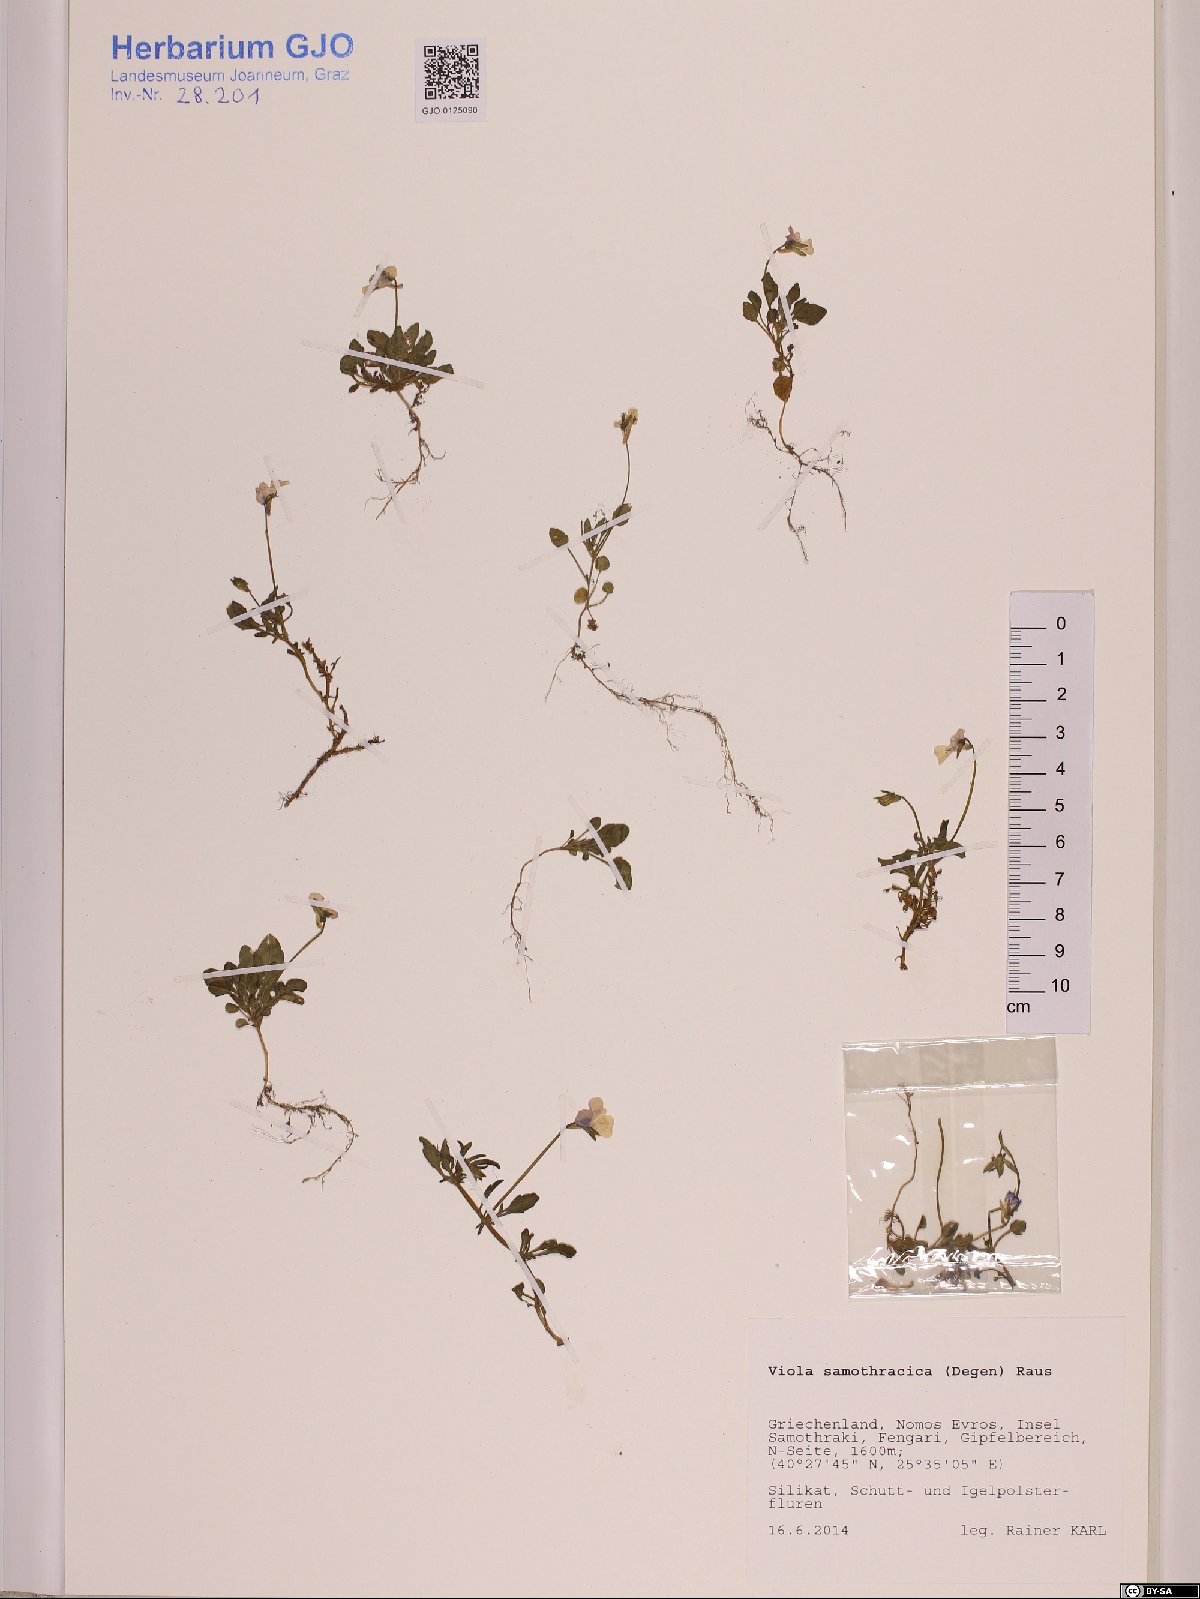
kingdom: Plantae
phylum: Tracheophyta
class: Magnoliopsida
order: Malpighiales
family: Violaceae
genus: Viola
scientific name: Viola samothracica
